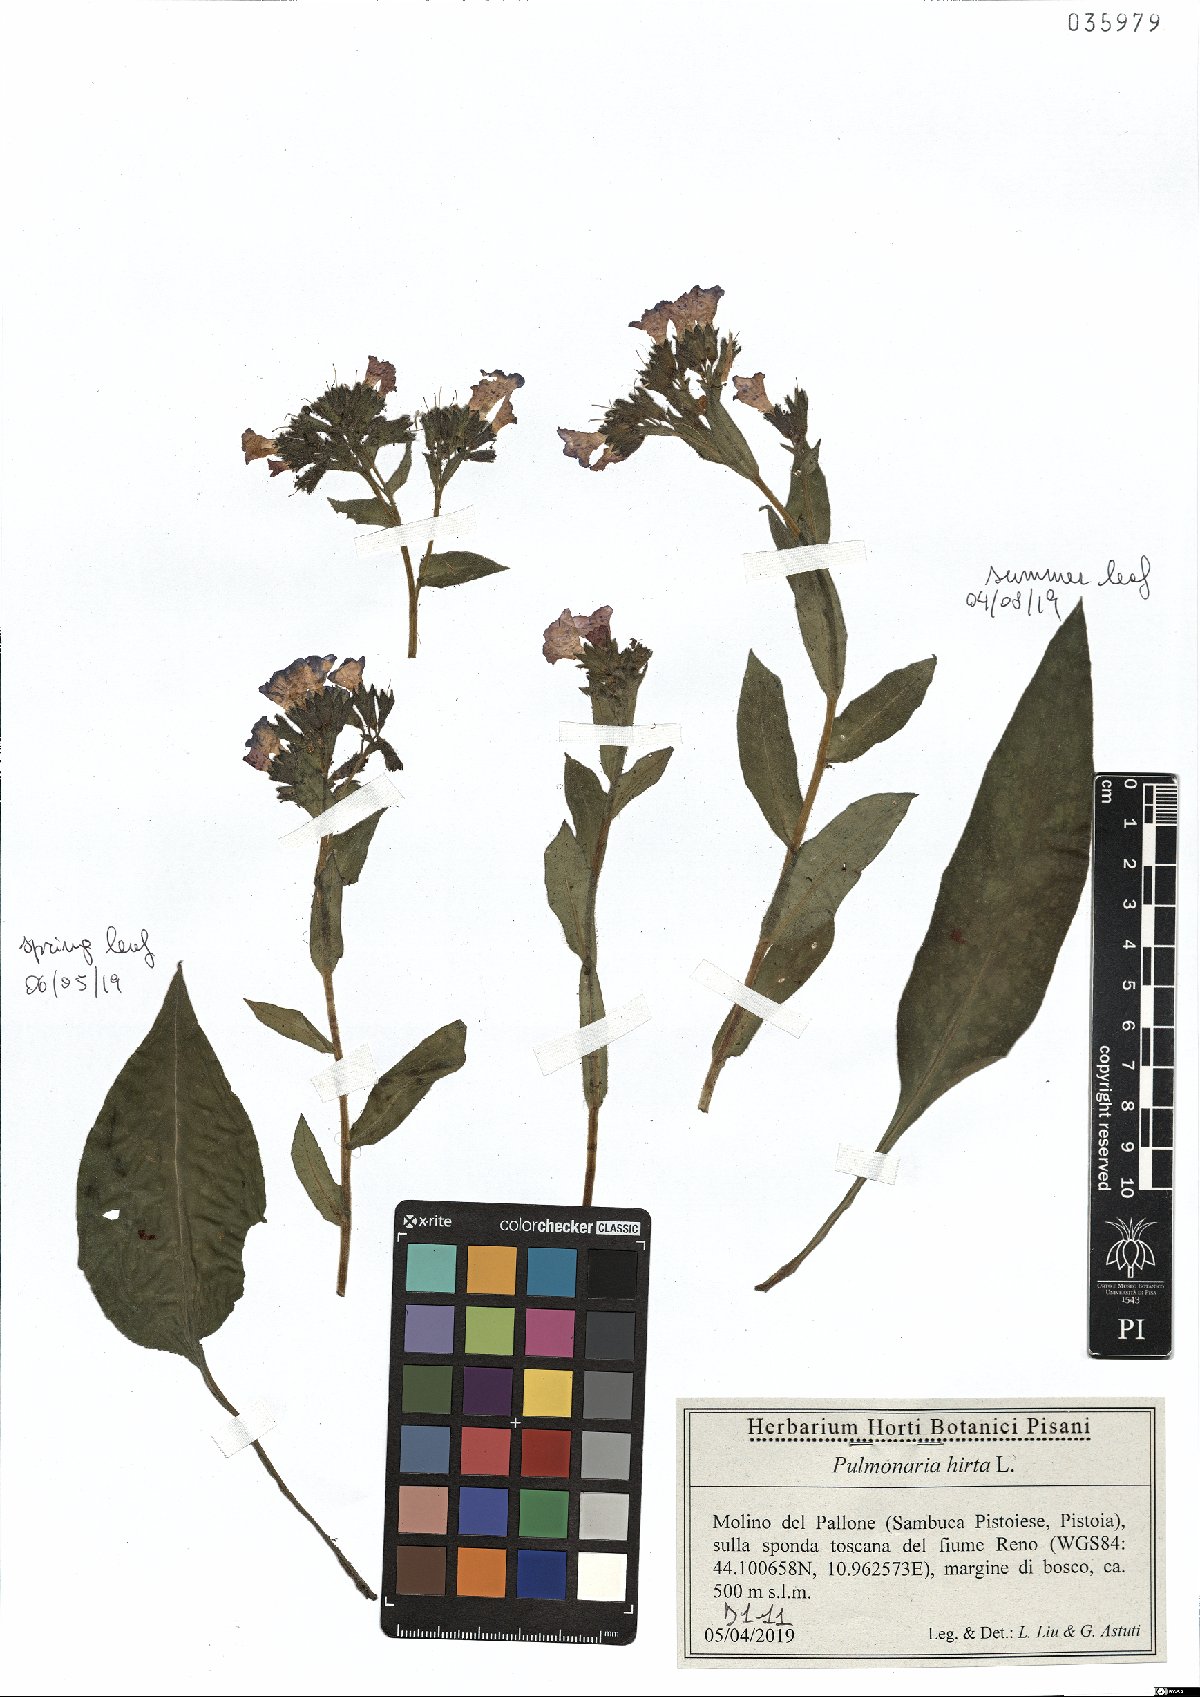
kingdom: Plantae
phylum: Tracheophyta
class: Magnoliopsida
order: Boraginales
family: Boraginaceae
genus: Pulmonaria
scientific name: Pulmonaria hirta
